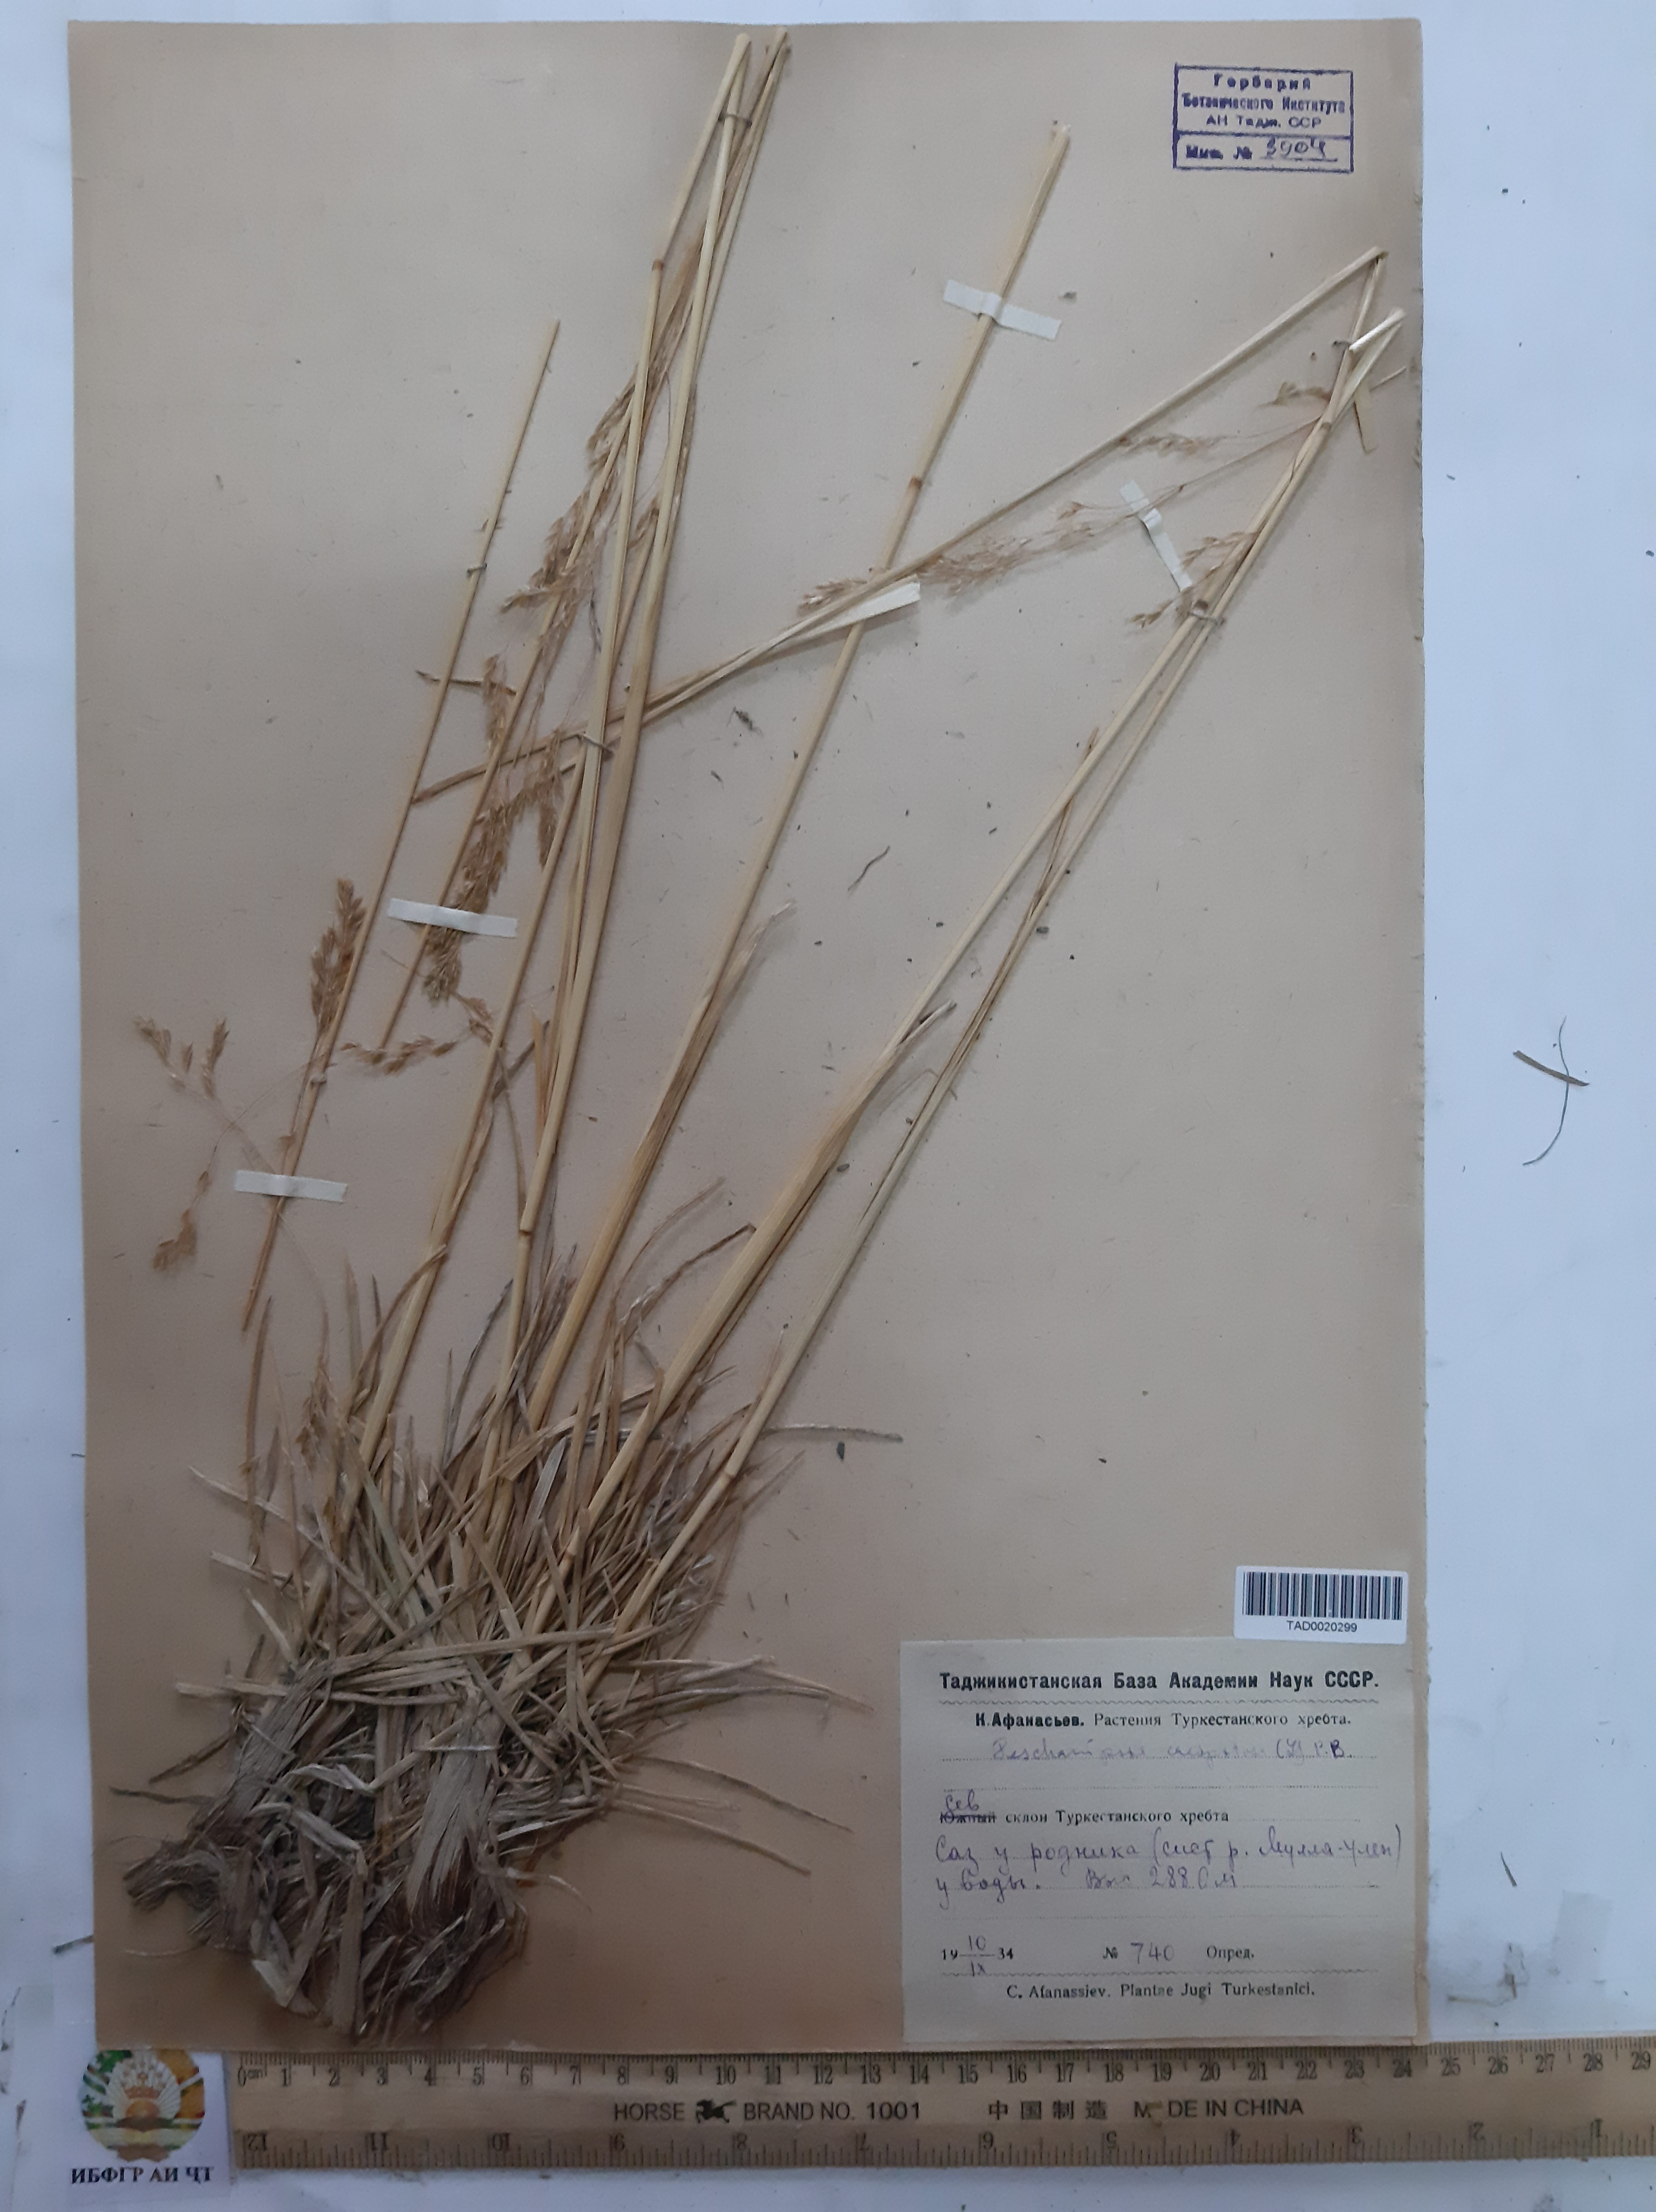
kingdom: Plantae
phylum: Tracheophyta
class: Liliopsida
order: Poales
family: Poaceae
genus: Deschampsia
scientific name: Deschampsia cespitosa
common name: Tufted hair-grass
